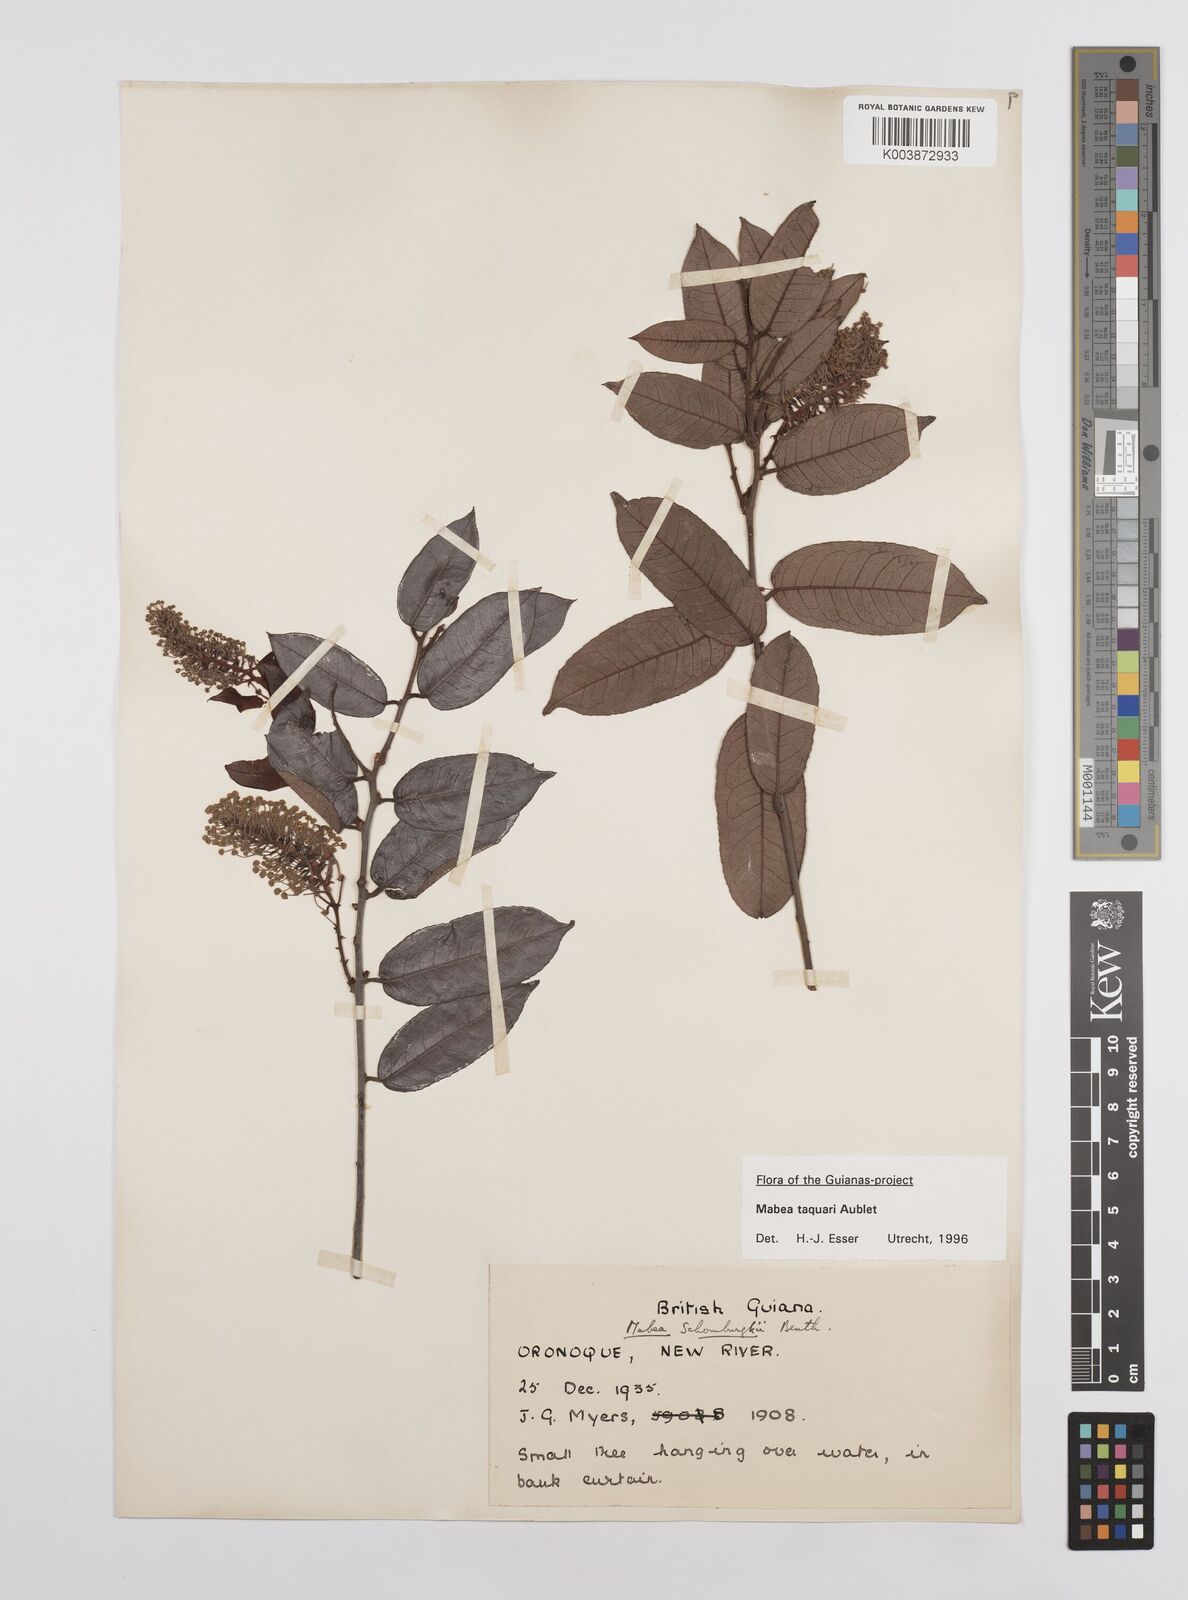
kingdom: Plantae
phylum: Tracheophyta
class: Magnoliopsida
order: Malpighiales
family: Euphorbiaceae
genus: Mabea
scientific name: Mabea taquari
